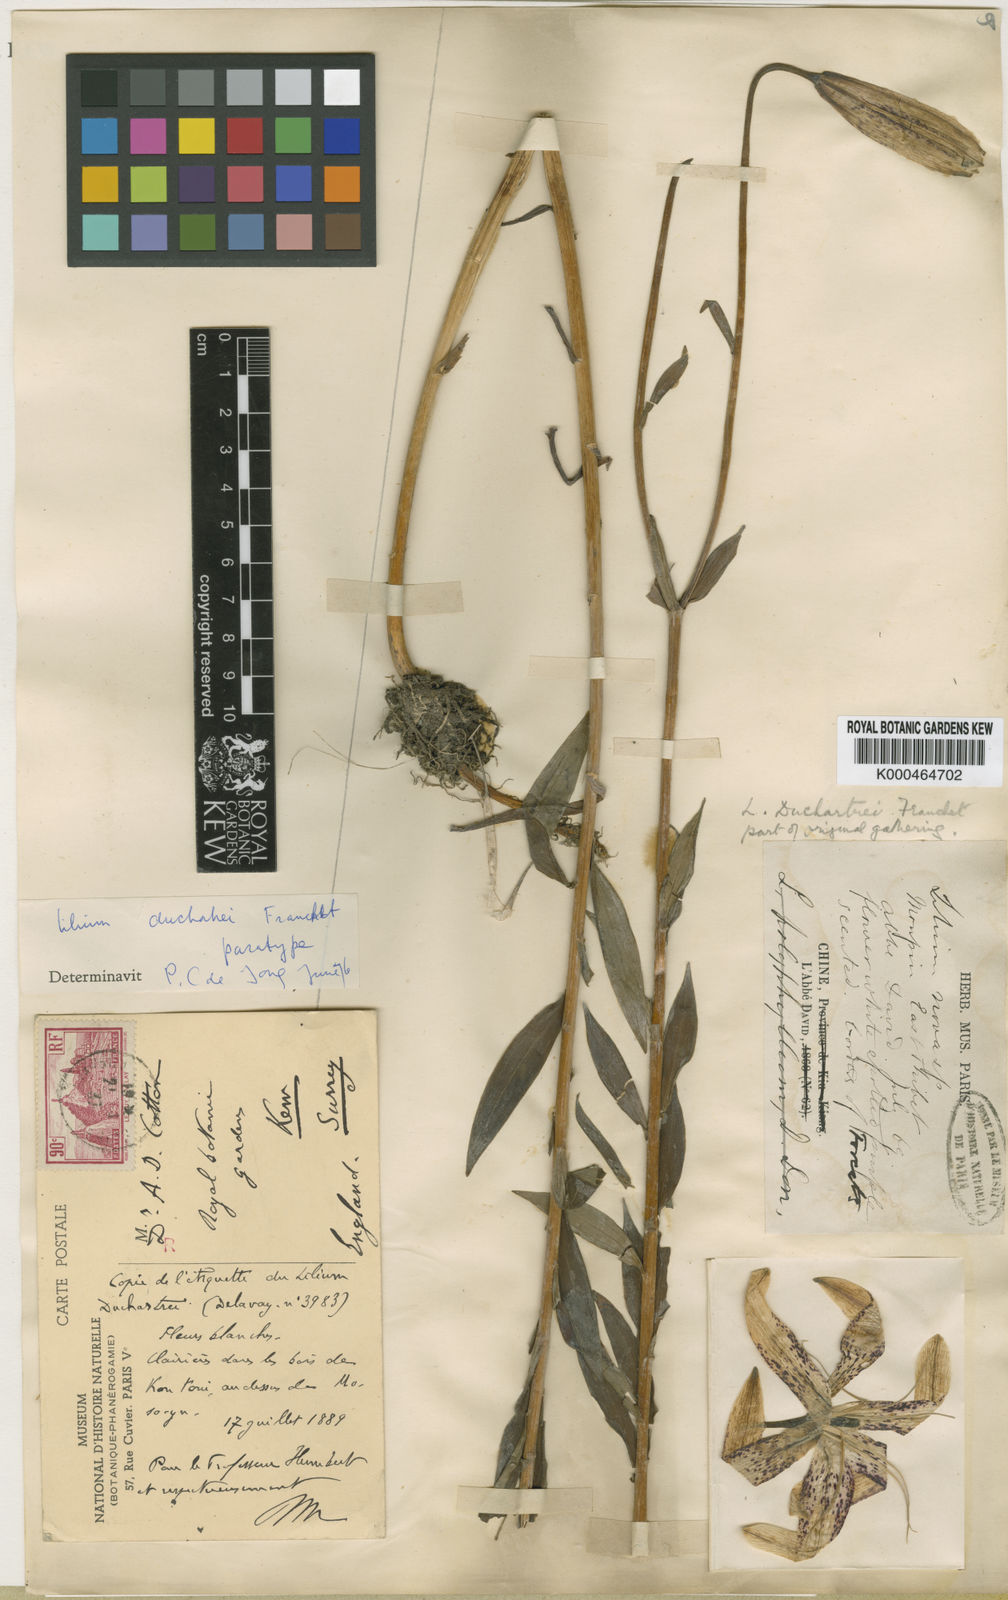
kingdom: Plantae
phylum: Tracheophyta
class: Liliopsida
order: Liliales
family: Liliaceae
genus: Lilium
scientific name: Lilium duchartrei
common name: Duchartre lily
